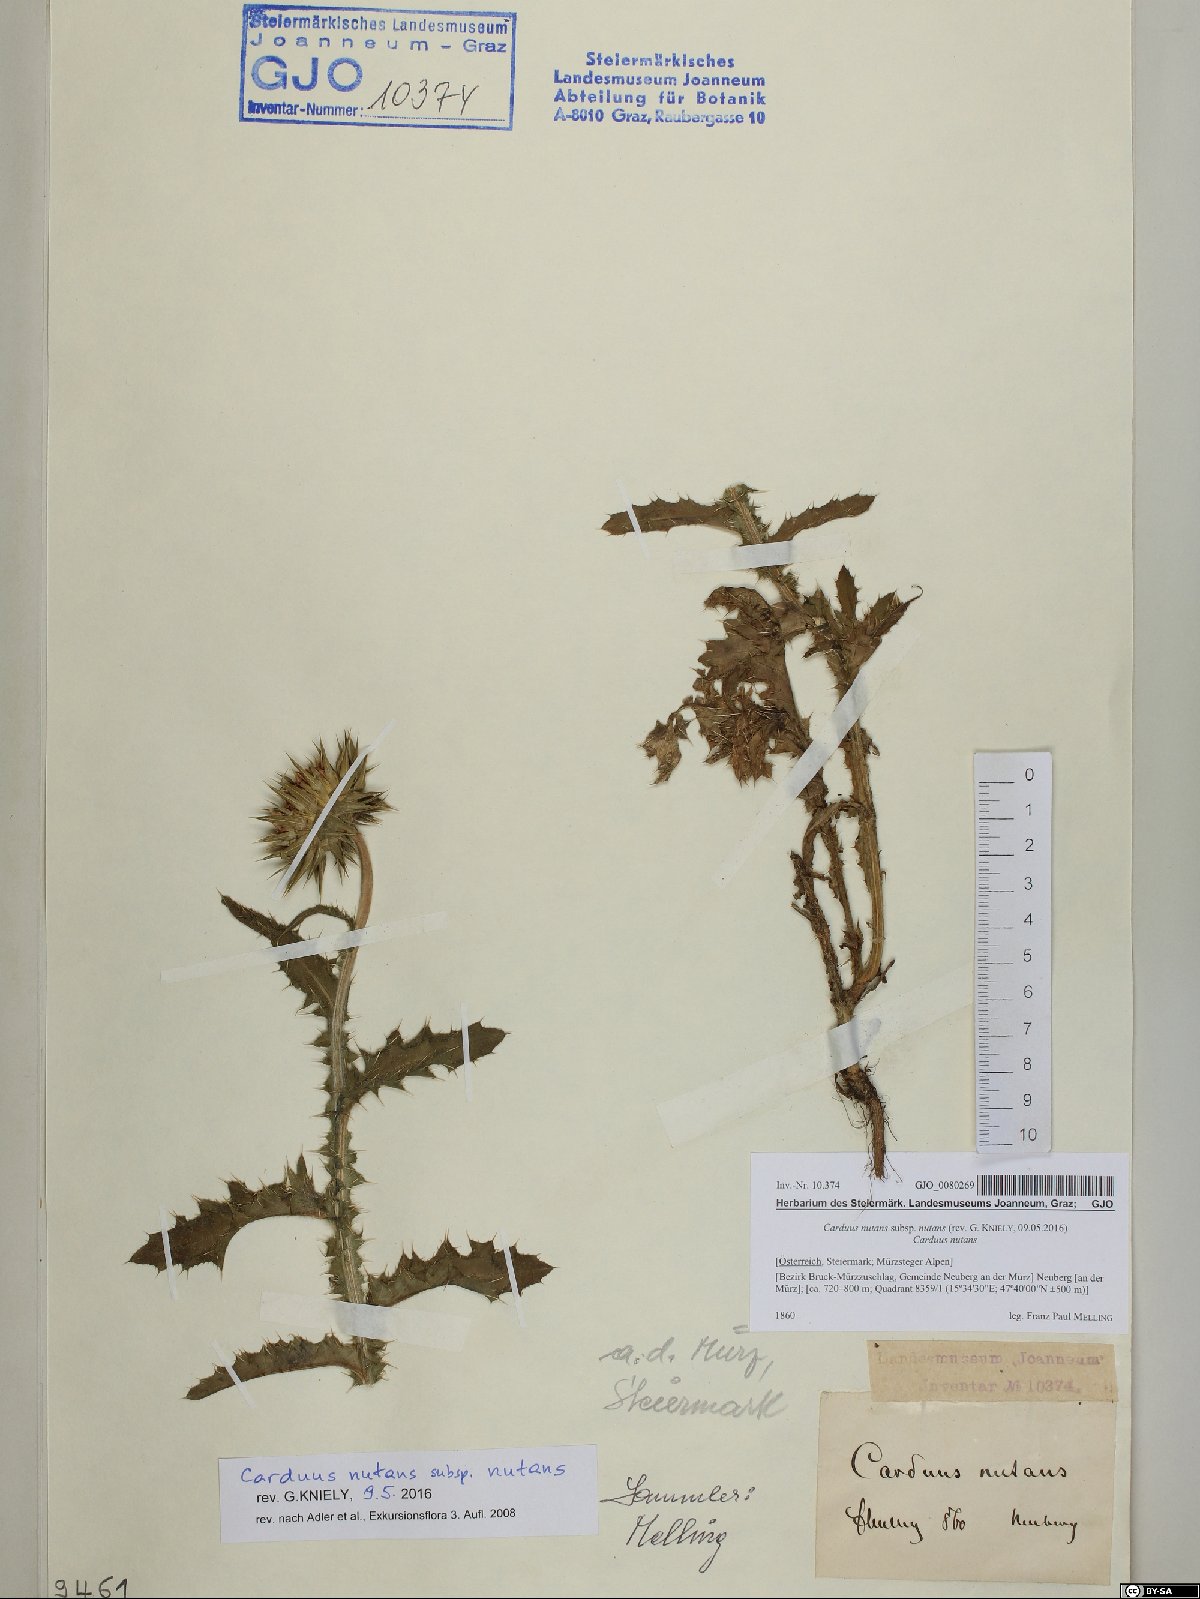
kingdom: Plantae
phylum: Tracheophyta
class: Magnoliopsida
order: Asterales
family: Asteraceae
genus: Carduus
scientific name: Carduus nutans
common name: Musk thistle
